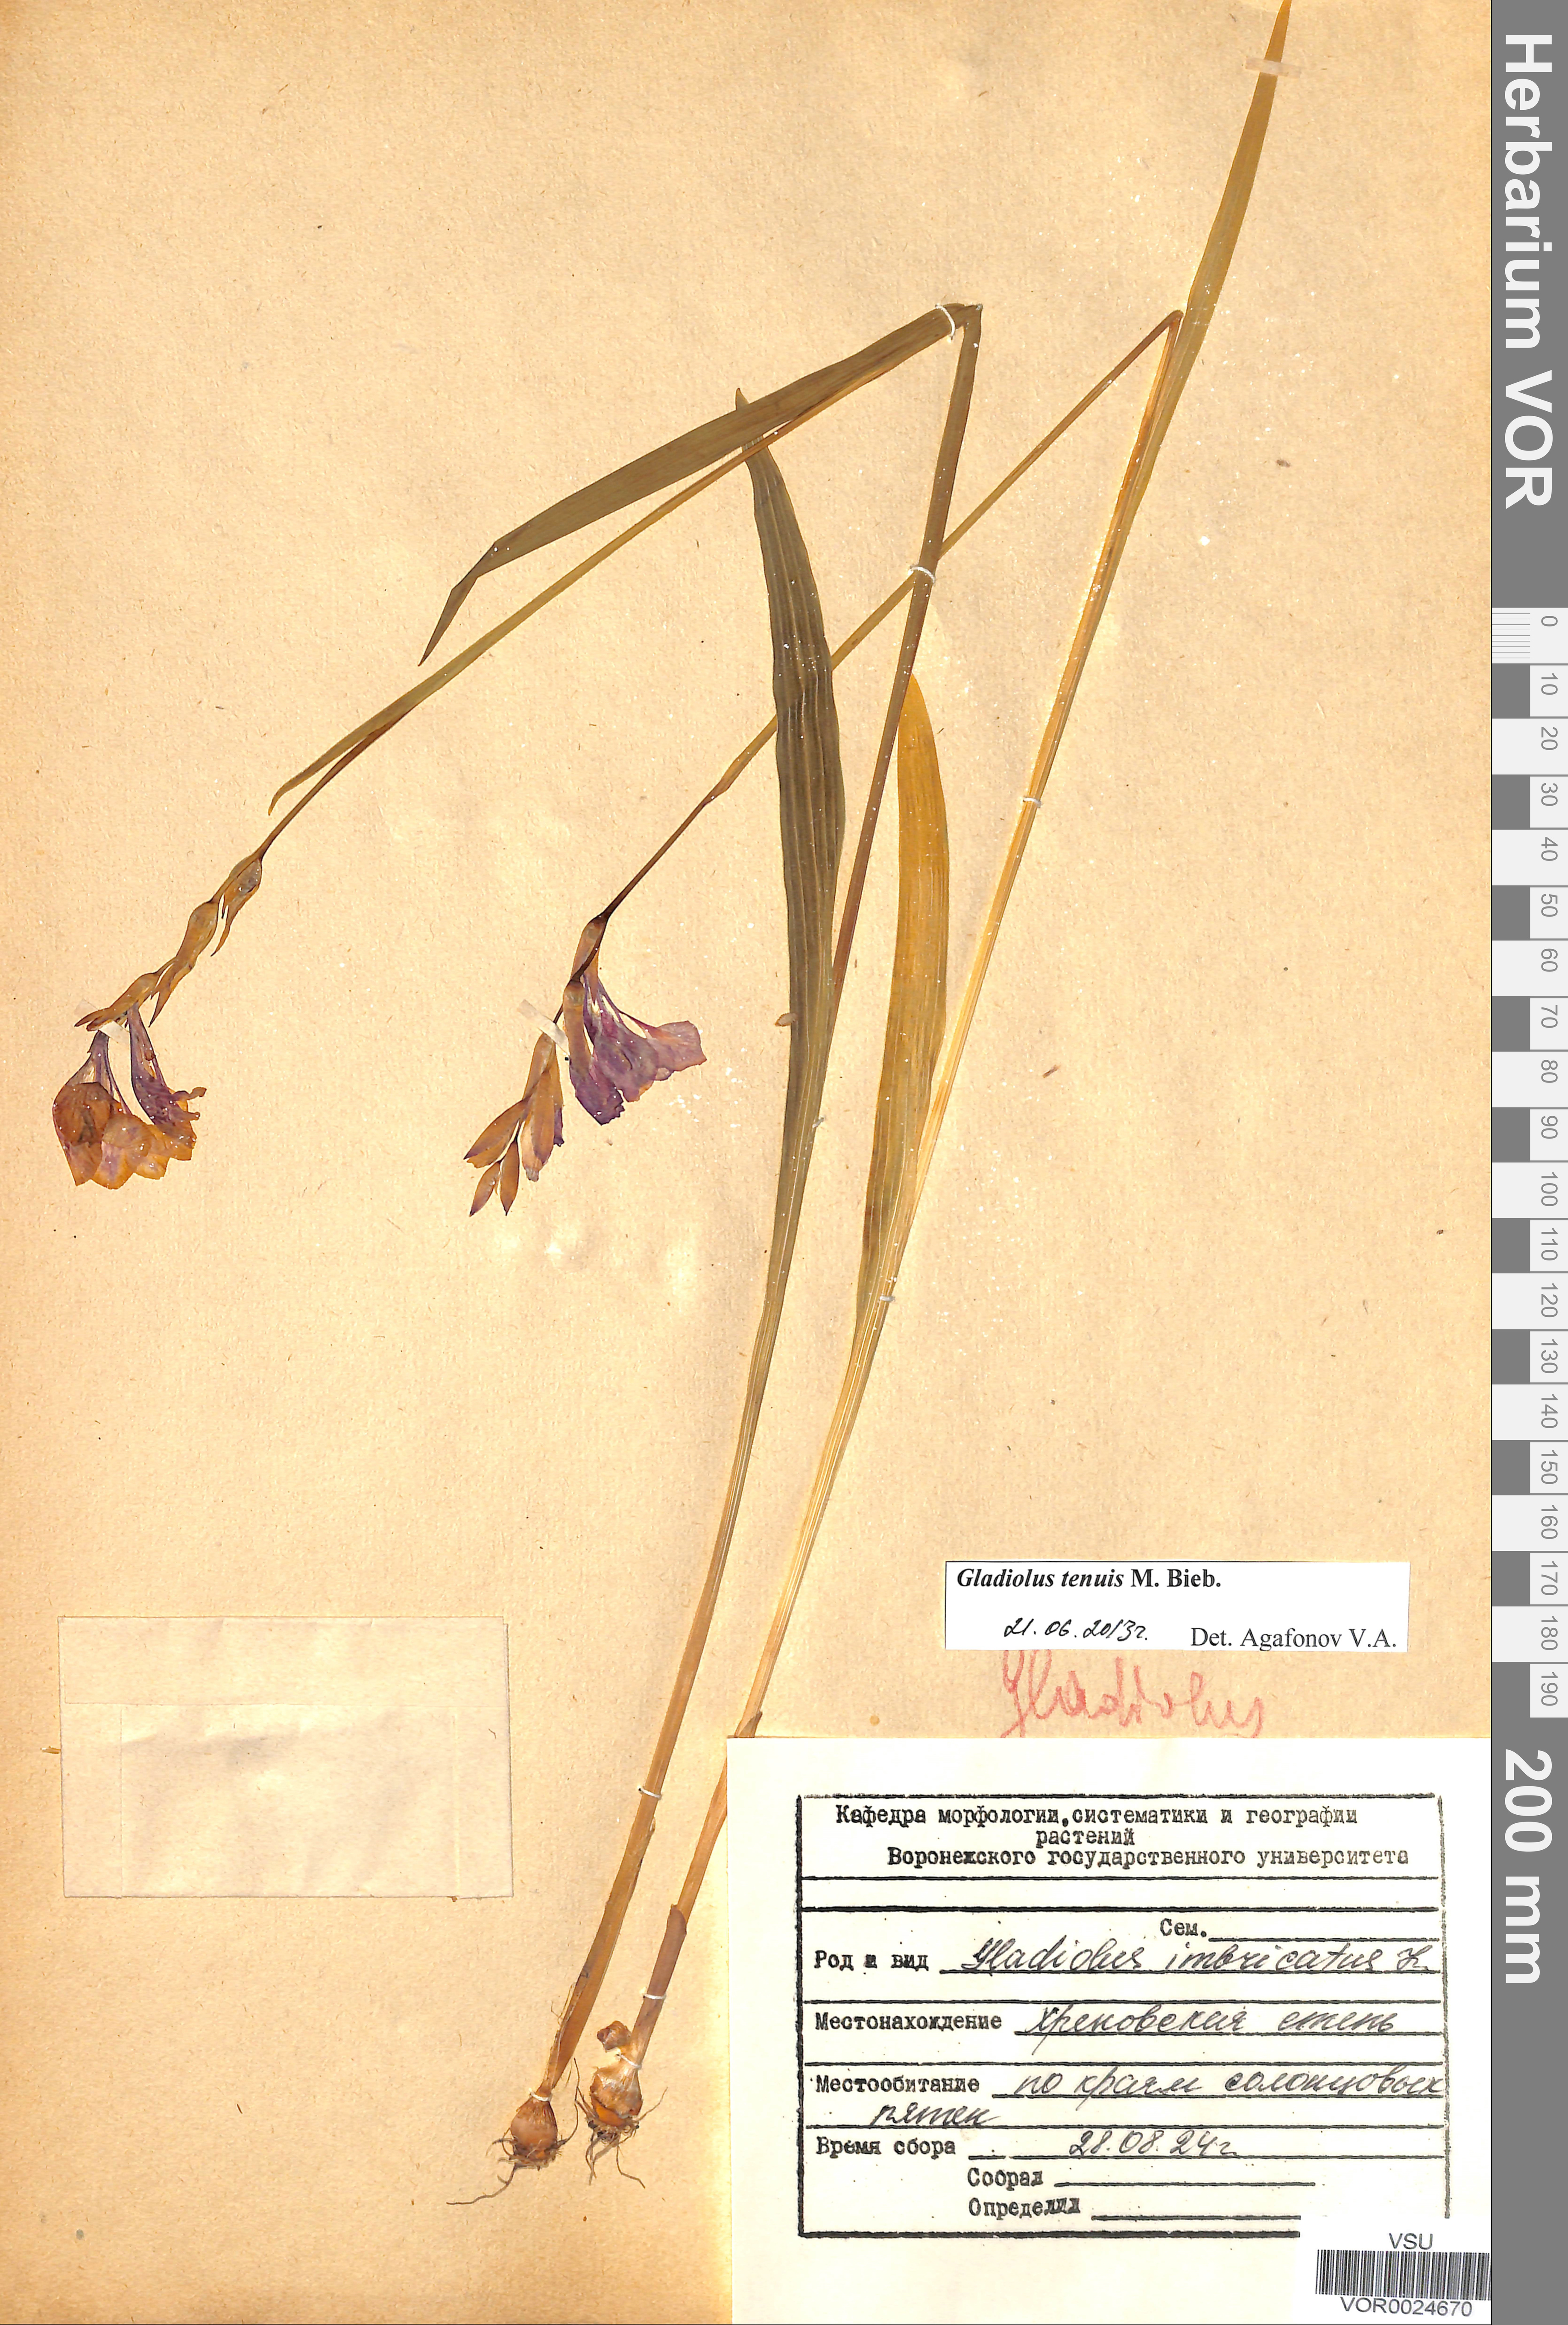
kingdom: Plantae
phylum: Tracheophyta
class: Liliopsida
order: Asparagales
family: Iridaceae
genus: Gladiolus
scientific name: Gladiolus tenuis
